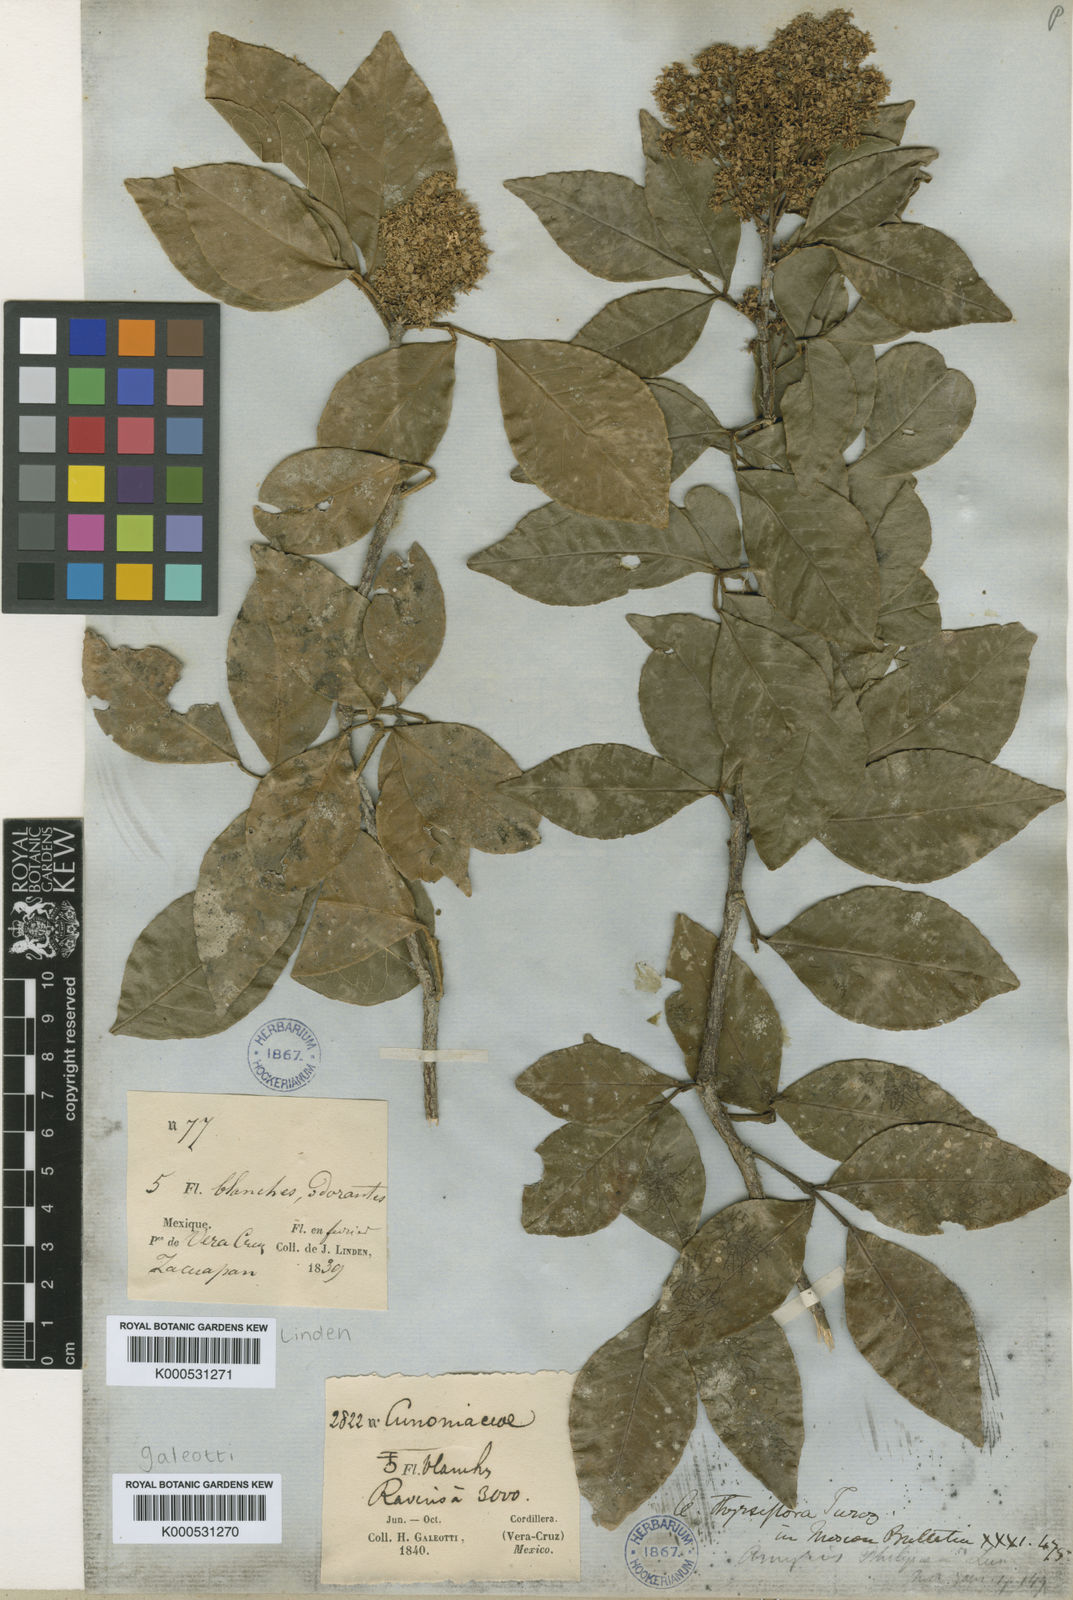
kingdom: Plantae
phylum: Tracheophyta
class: Magnoliopsida
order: Sapindales
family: Rutaceae
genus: Amyris
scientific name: Amyris thyrsiflora
